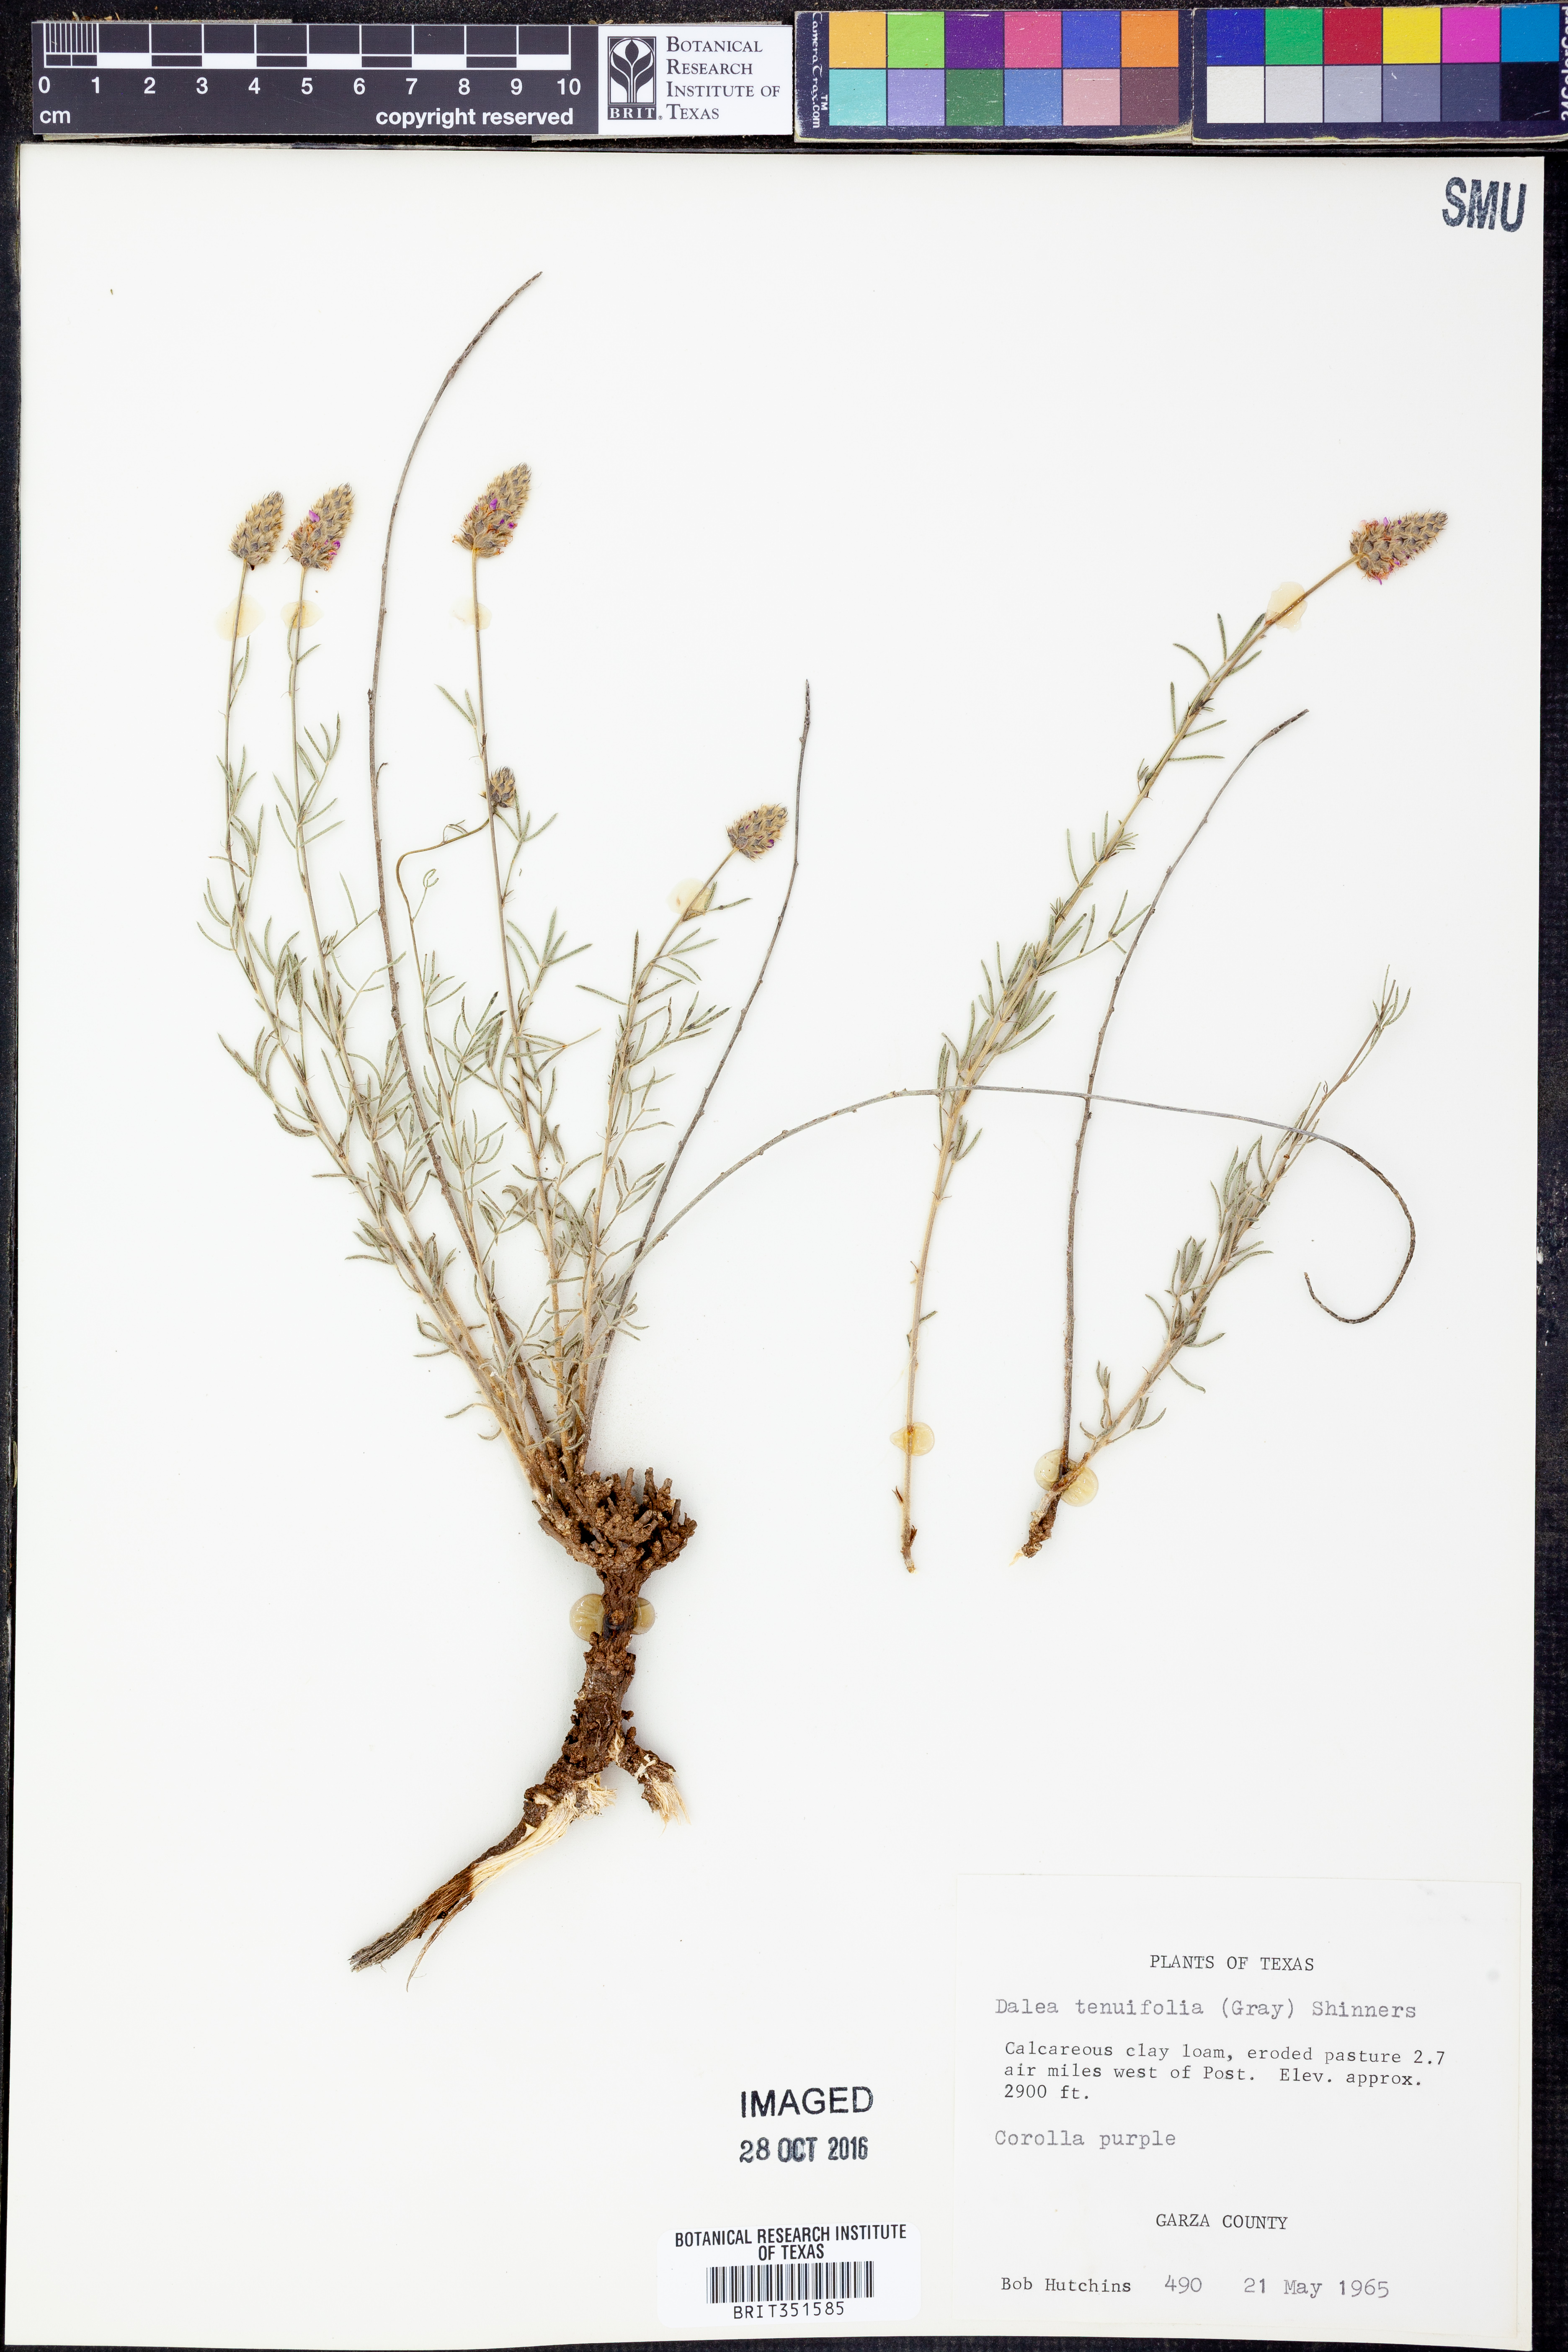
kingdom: Plantae
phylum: Tracheophyta
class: Magnoliopsida
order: Fabales
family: Fabaceae
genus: Dalea
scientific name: Dalea tenuifolia
